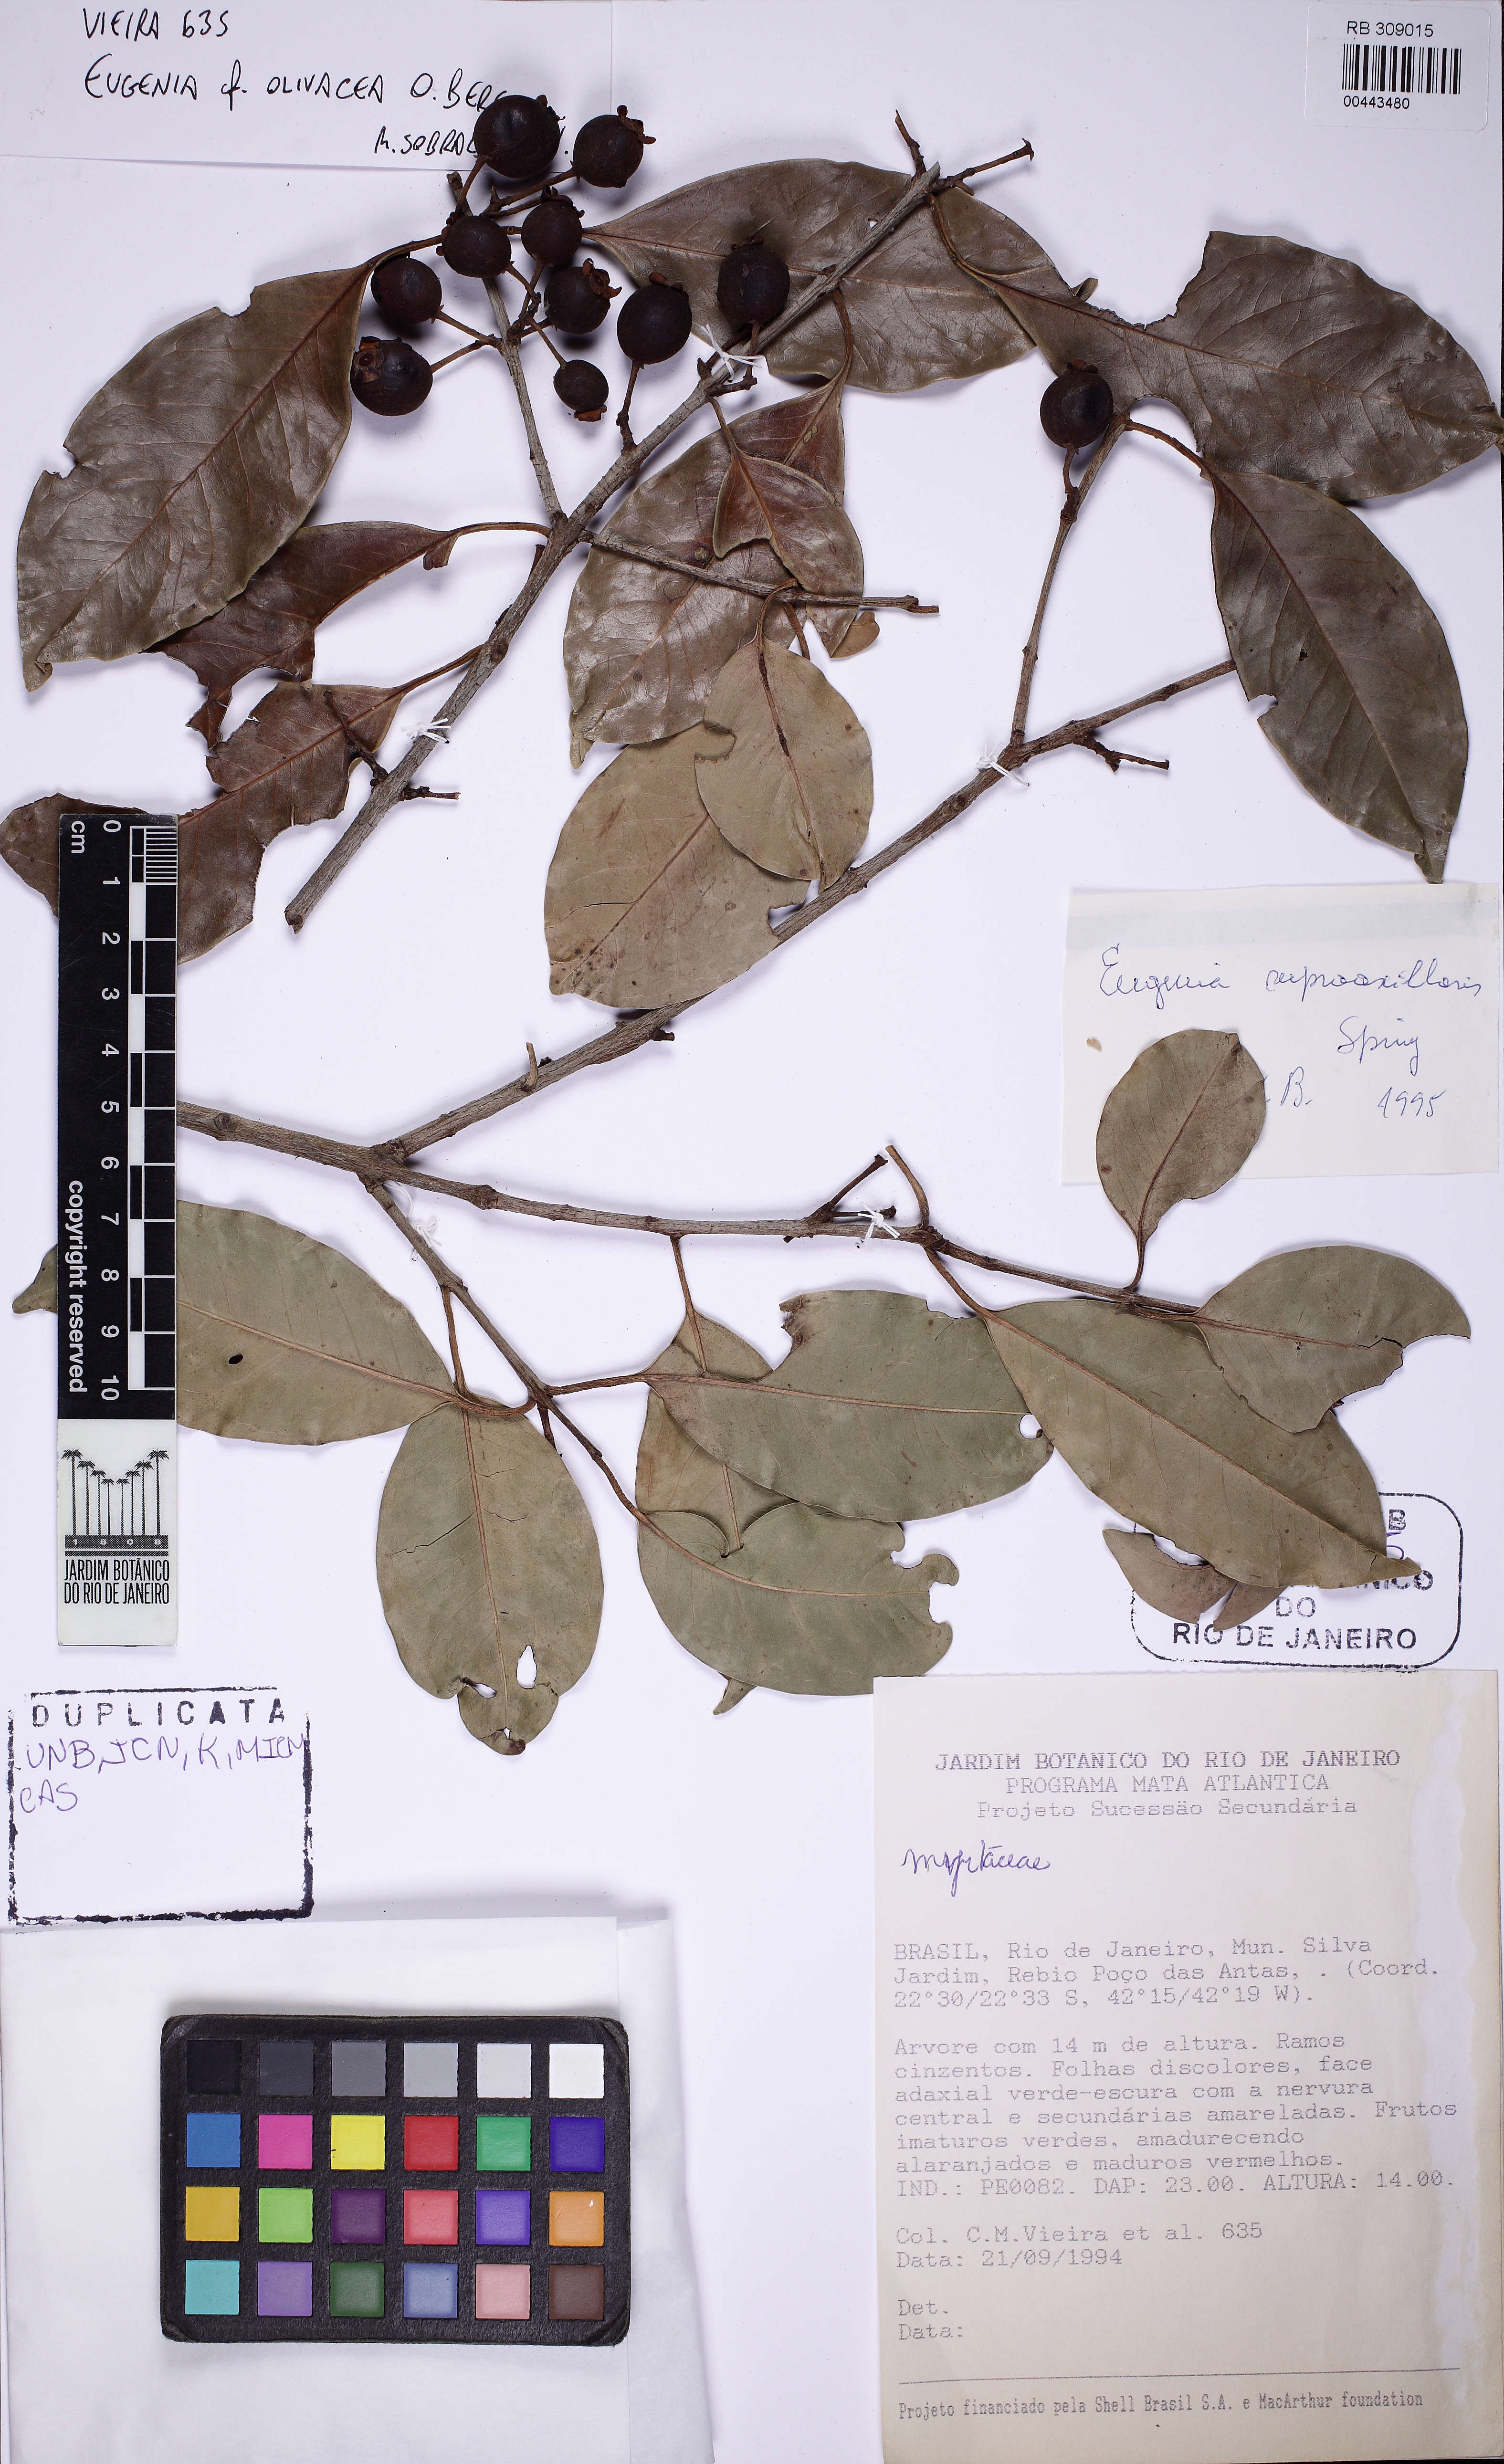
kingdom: Plantae
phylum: Tracheophyta
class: Magnoliopsida
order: Myrtales
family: Myrtaceae
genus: Eugenia
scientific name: Eugenia pruniformis
